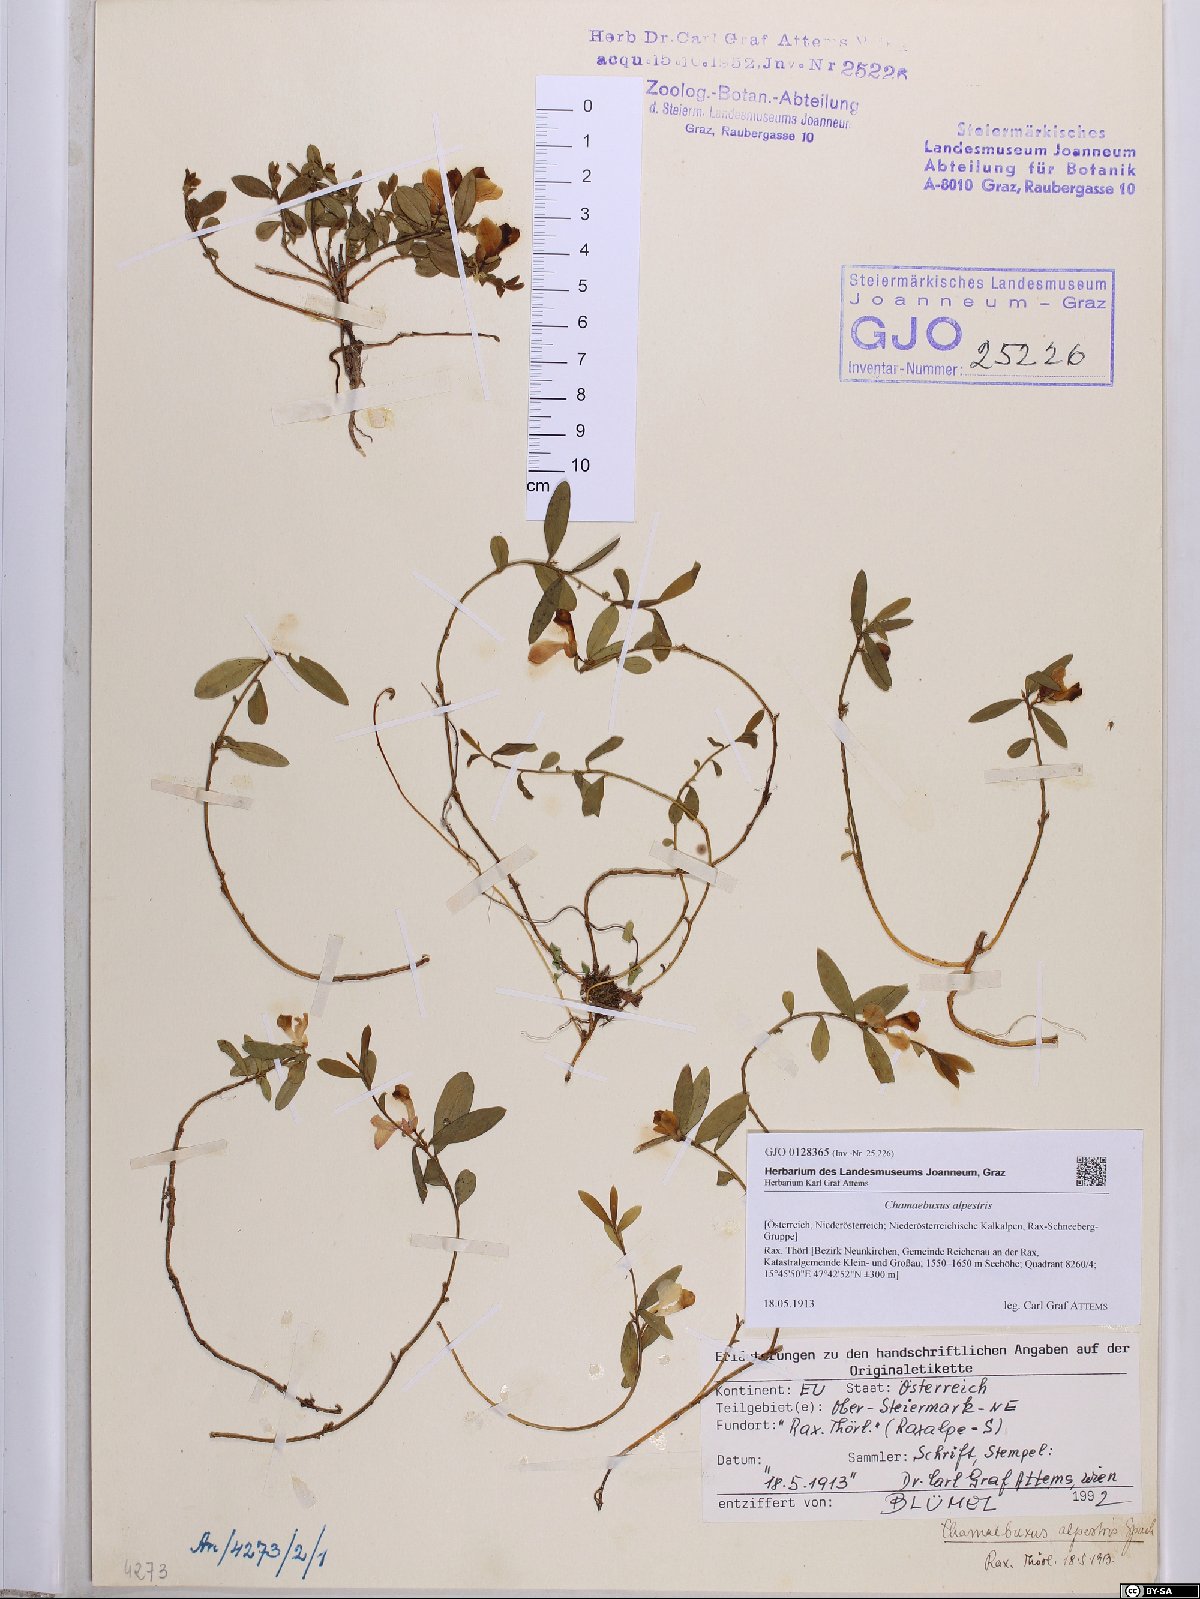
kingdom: Plantae
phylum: Tracheophyta
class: Magnoliopsida
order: Fabales
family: Polygalaceae
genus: Polygaloides
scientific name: Polygaloides chamaebuxus
